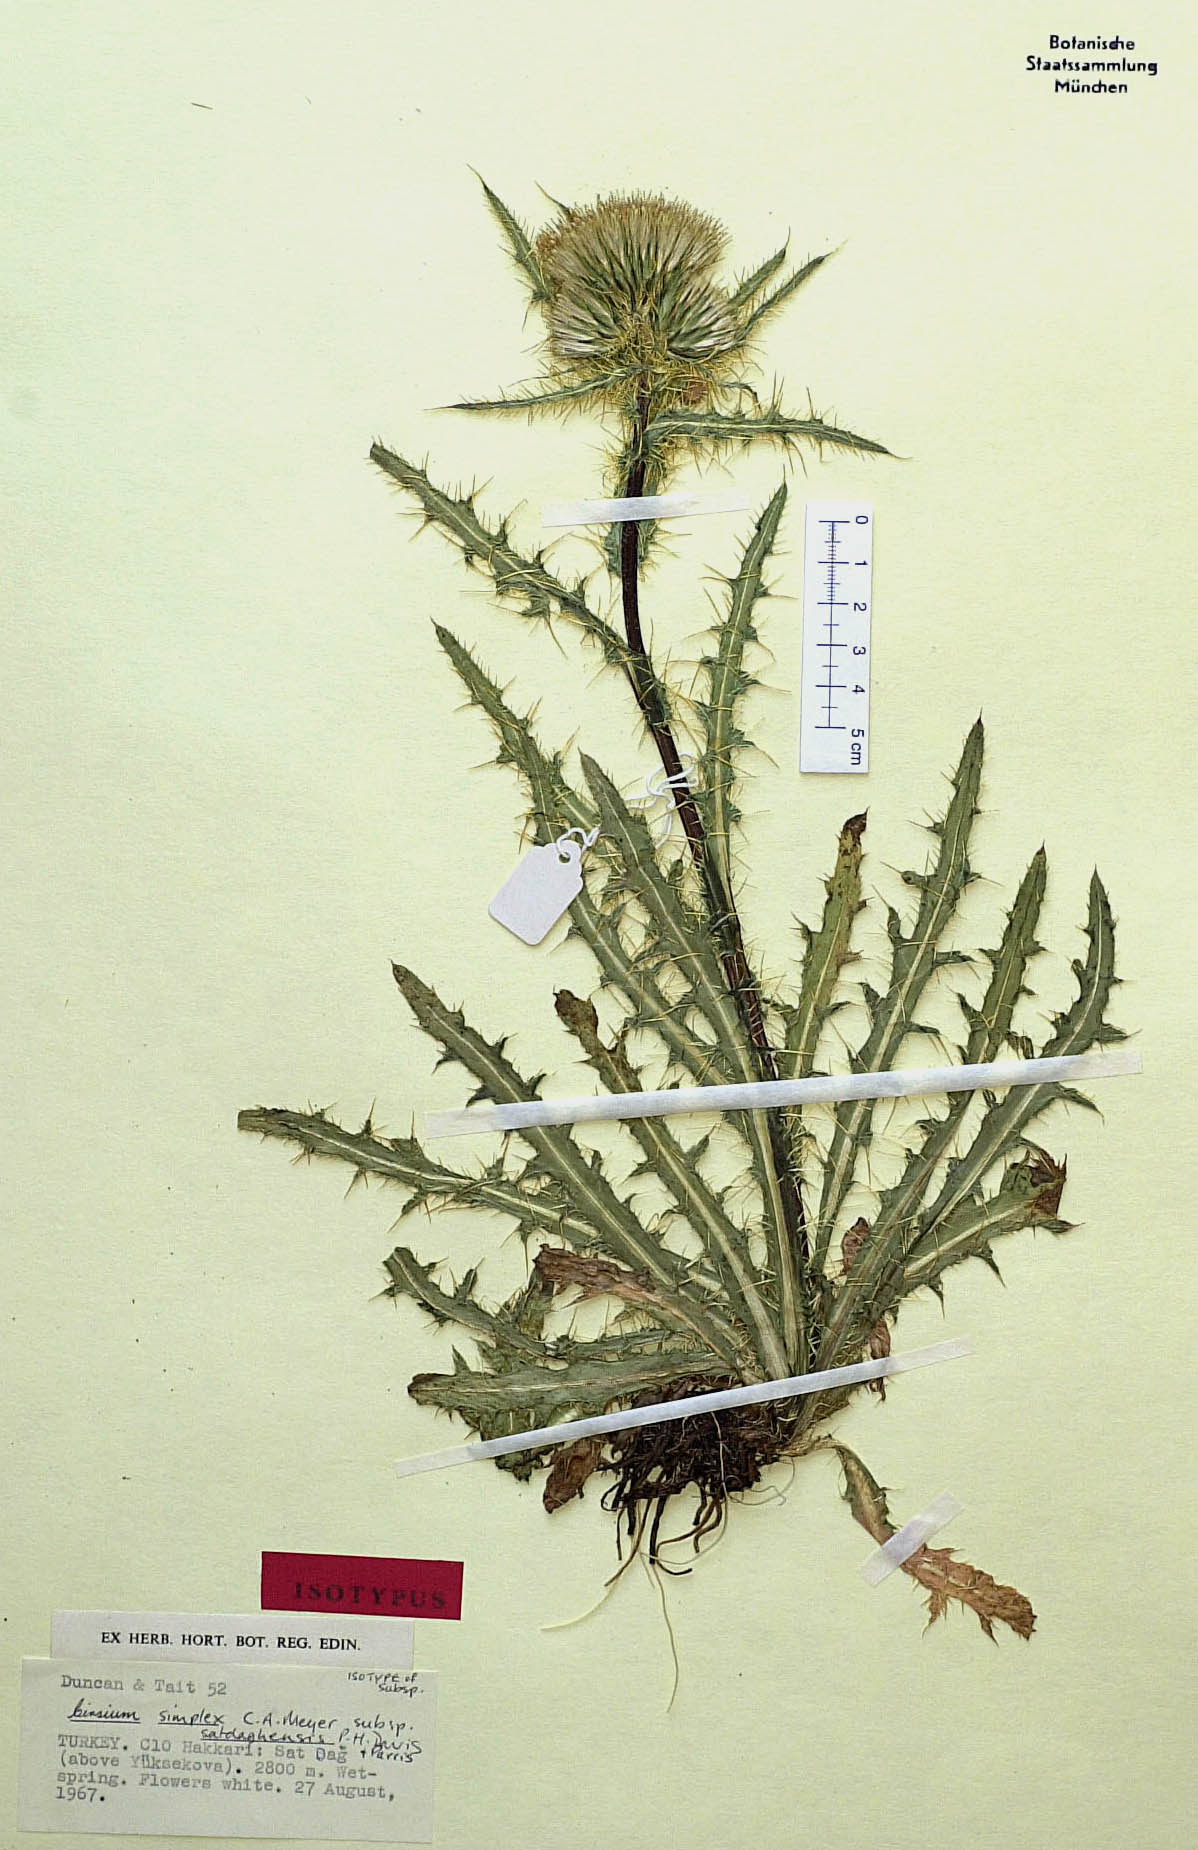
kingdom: Plantae
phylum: Tracheophyta
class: Magnoliopsida
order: Asterales
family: Asteraceae
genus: Cirsium
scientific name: Cirsium simplex
